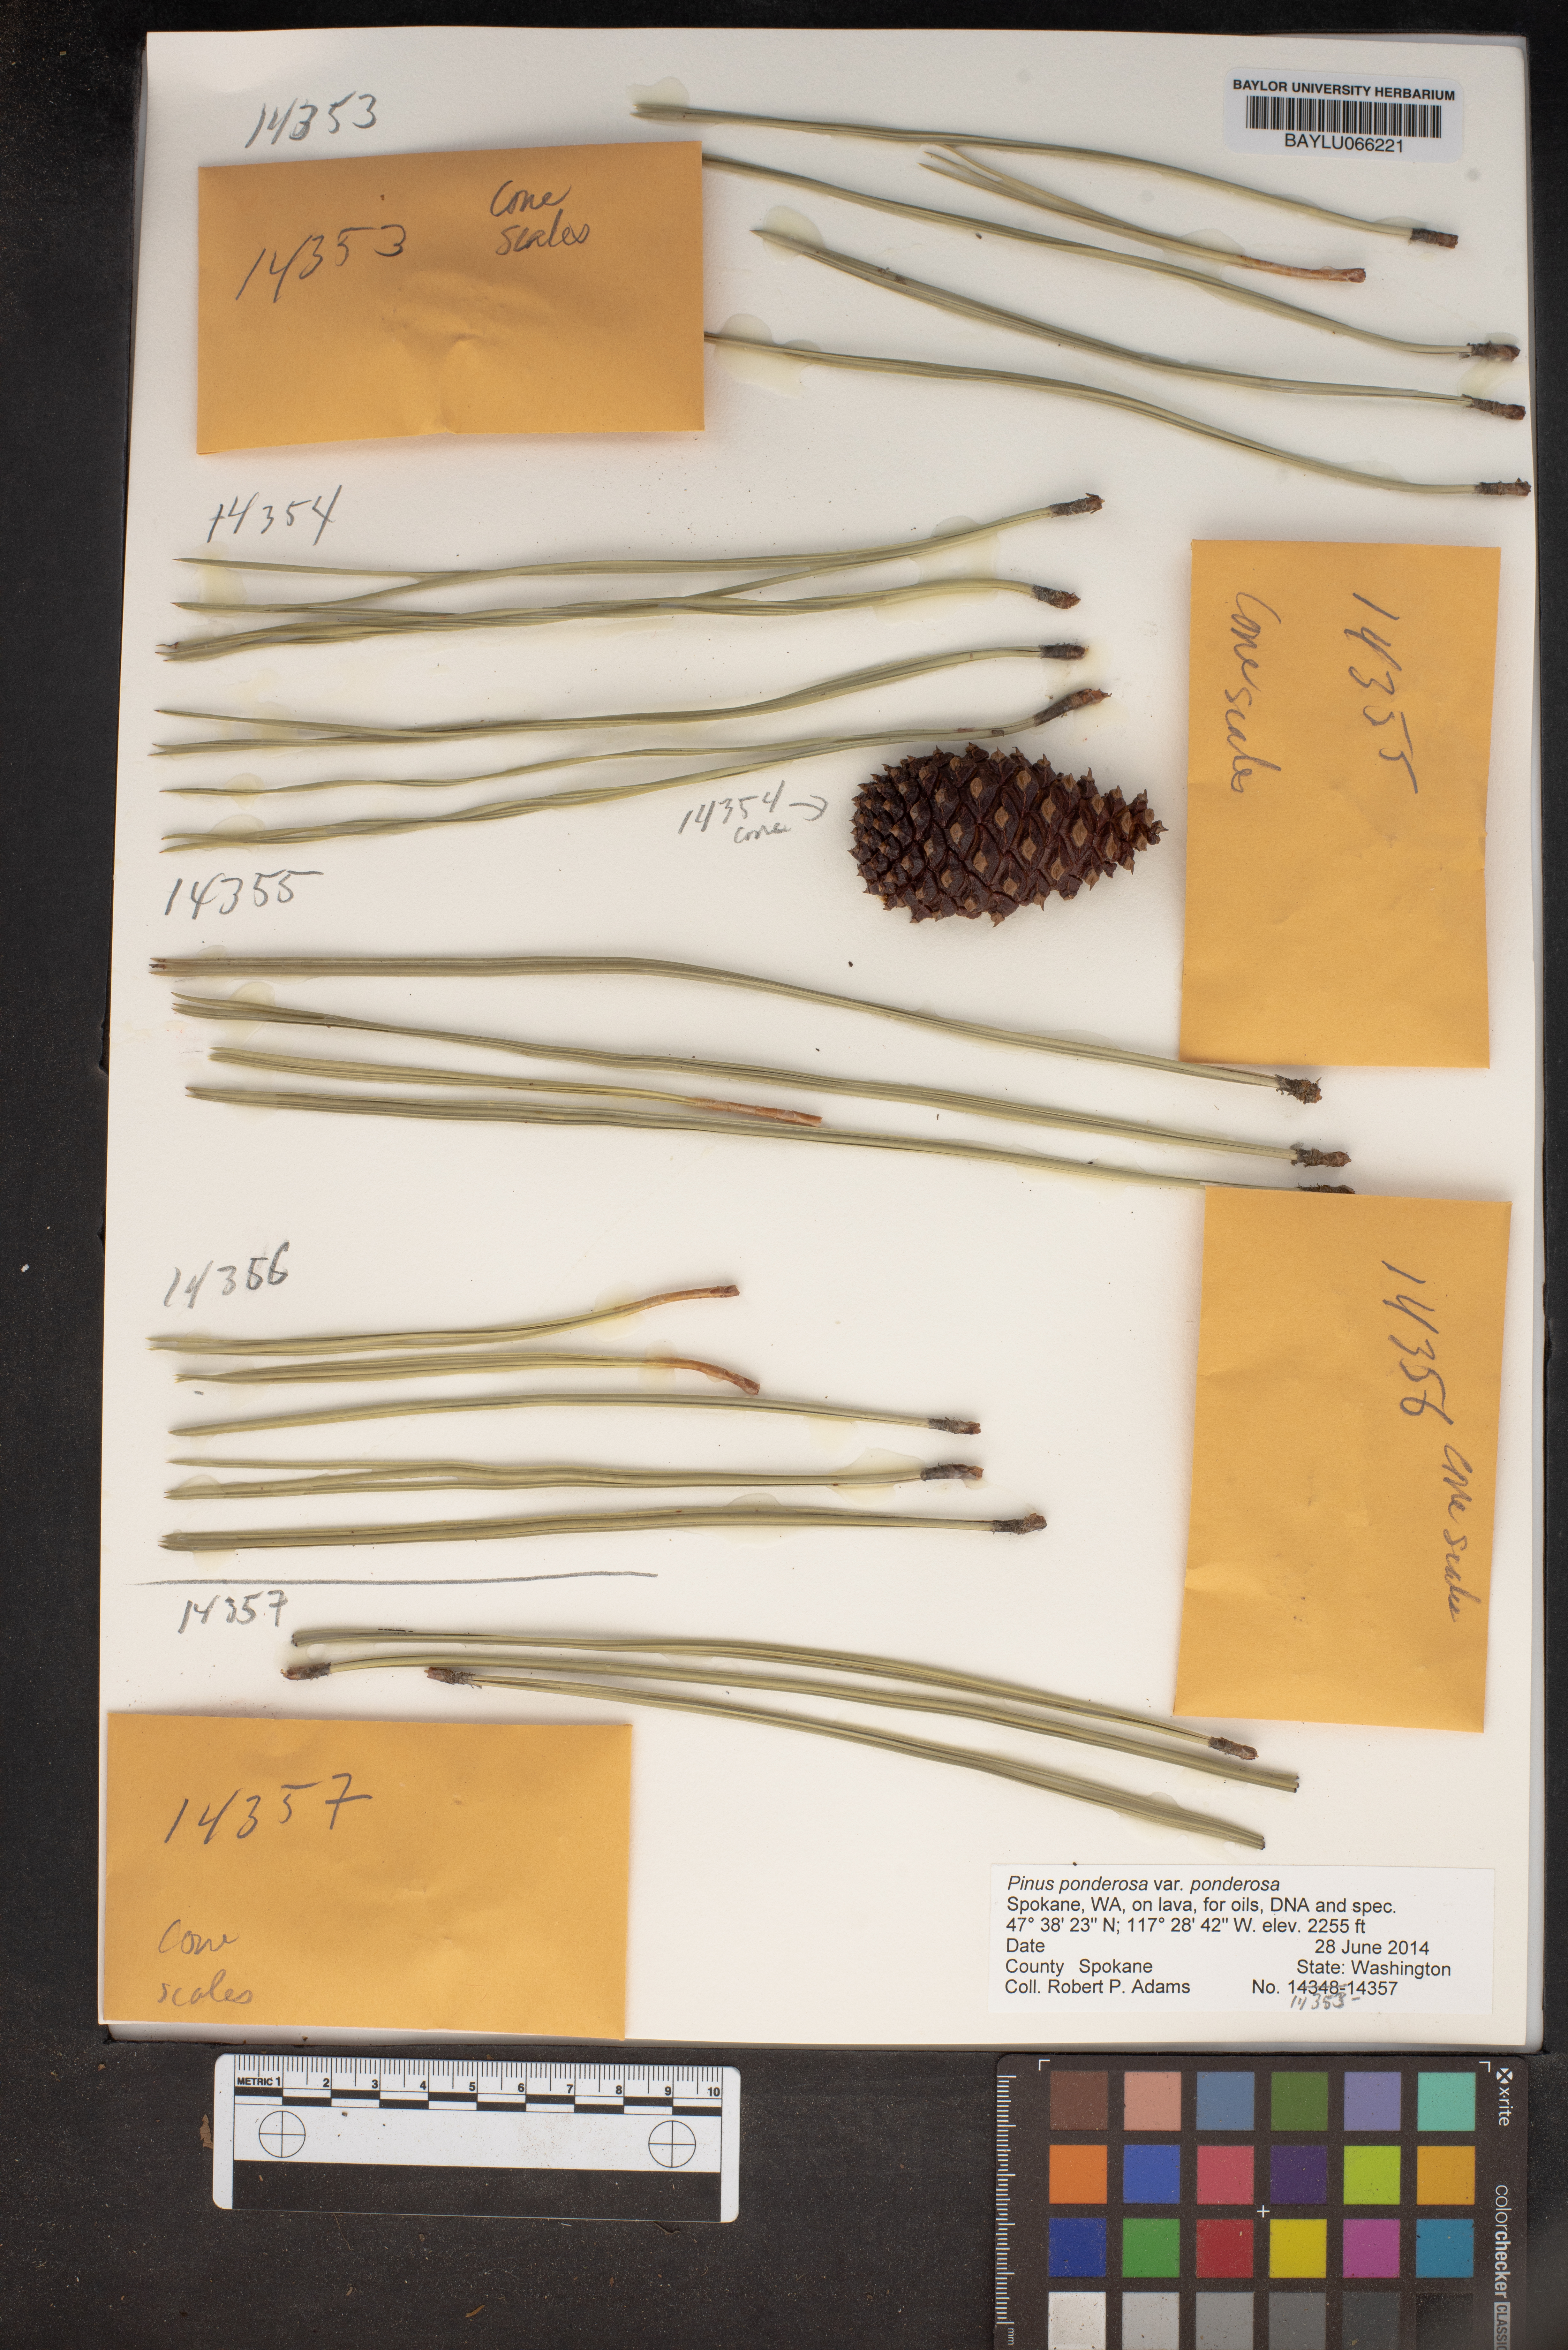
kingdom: Plantae
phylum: Tracheophyta
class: Pinopsida
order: Pinales
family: Pinaceae
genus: Pinus
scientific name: Pinus ponderosa
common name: Western yellow-pine
